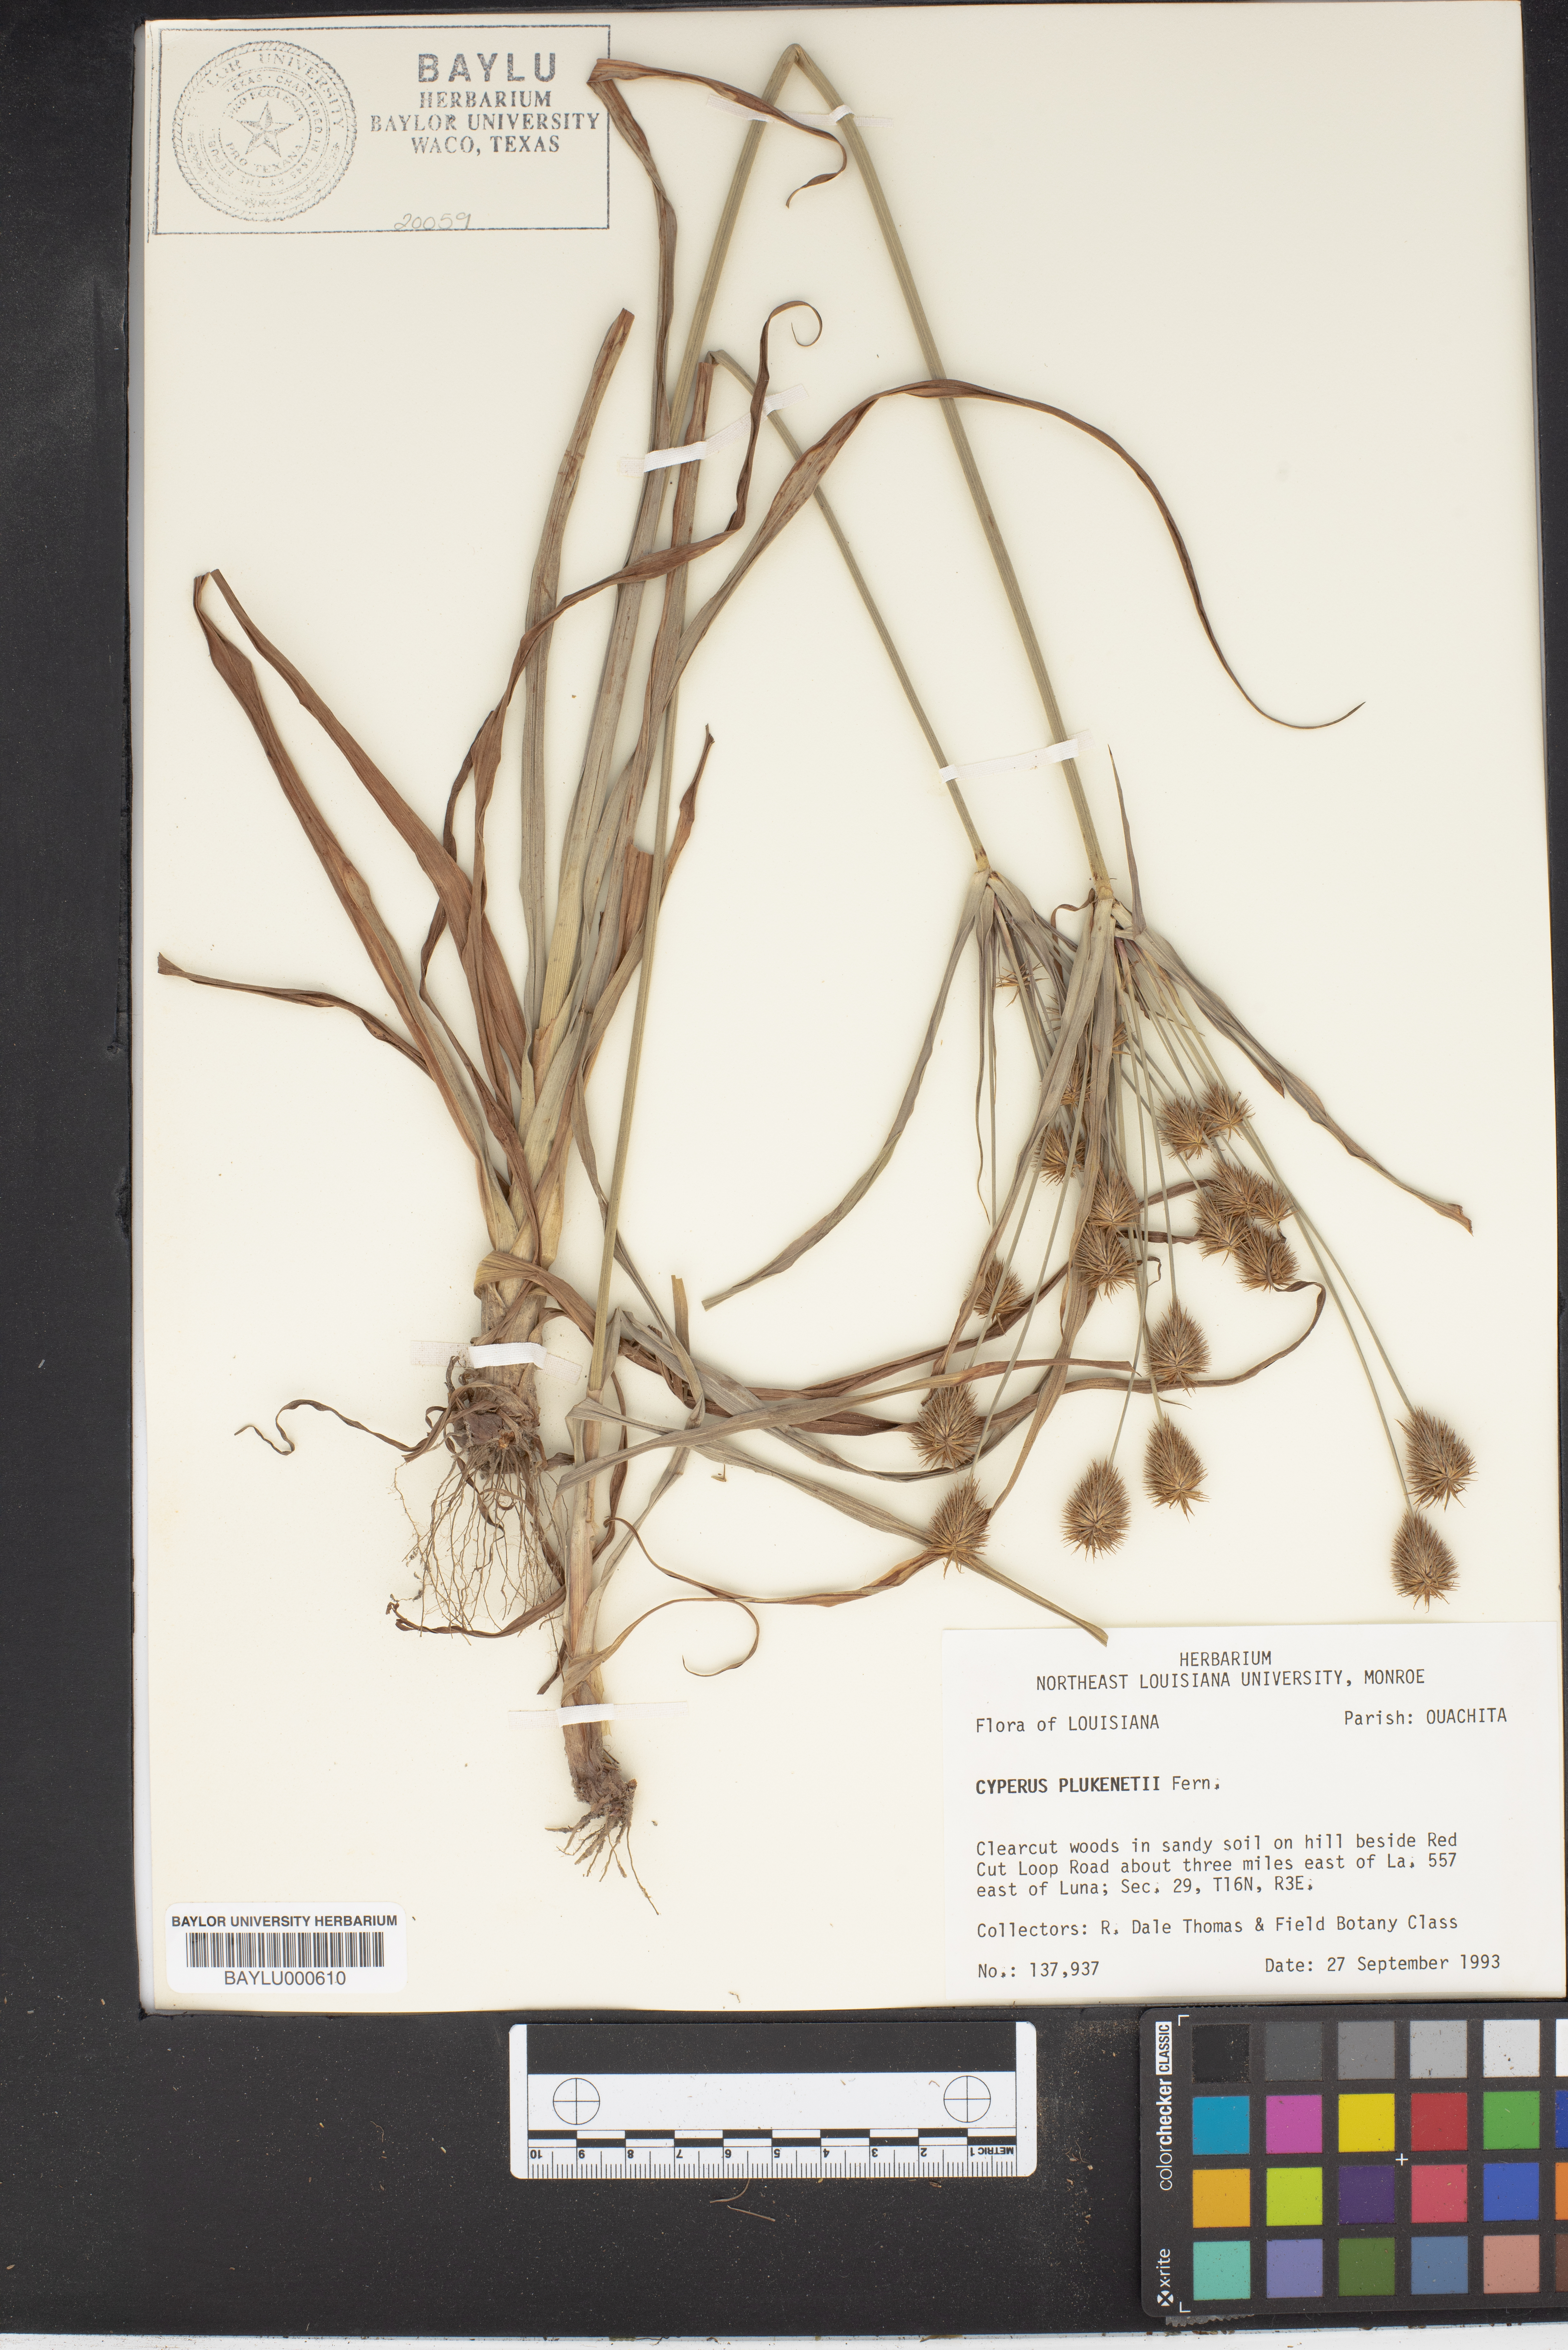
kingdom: Plantae
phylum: Tracheophyta
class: Liliopsida
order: Poales
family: Cyperaceae
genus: Cyperus
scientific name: Cyperus plukenetii
